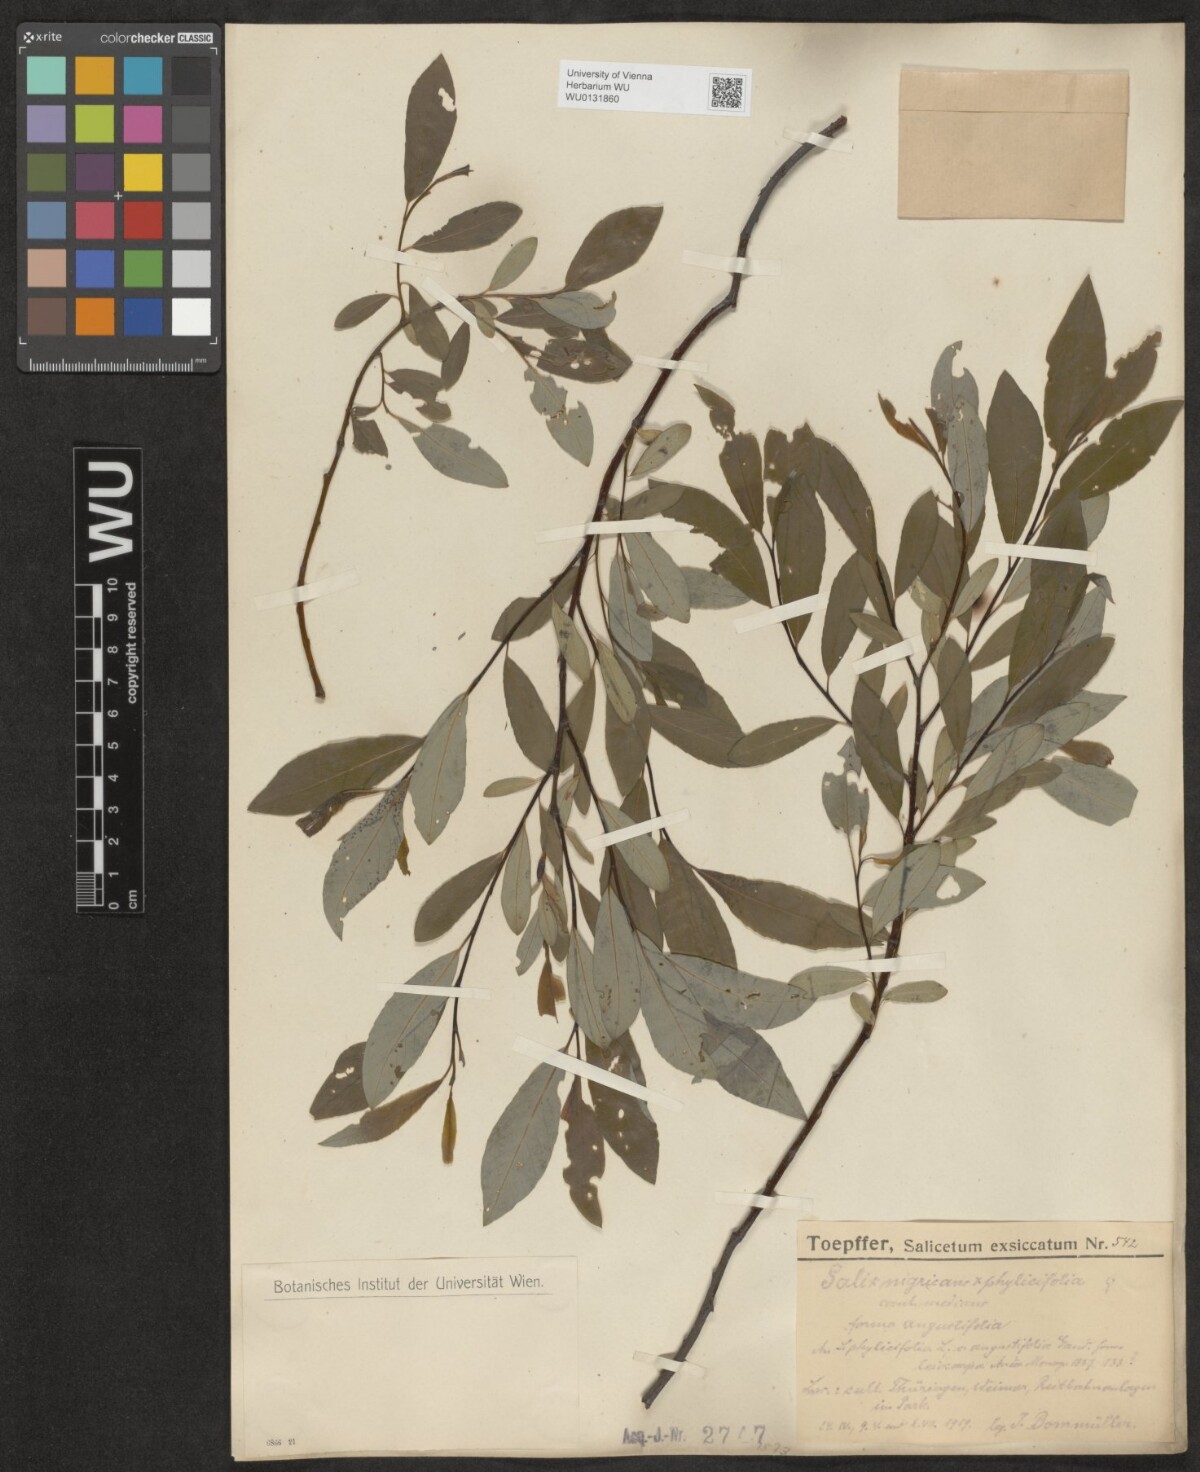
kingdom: Plantae
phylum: Tracheophyta
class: Magnoliopsida
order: Malpighiales
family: Salicaceae
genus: Salix
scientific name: Salix myrsinifolia
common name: Dark-leaved willow
